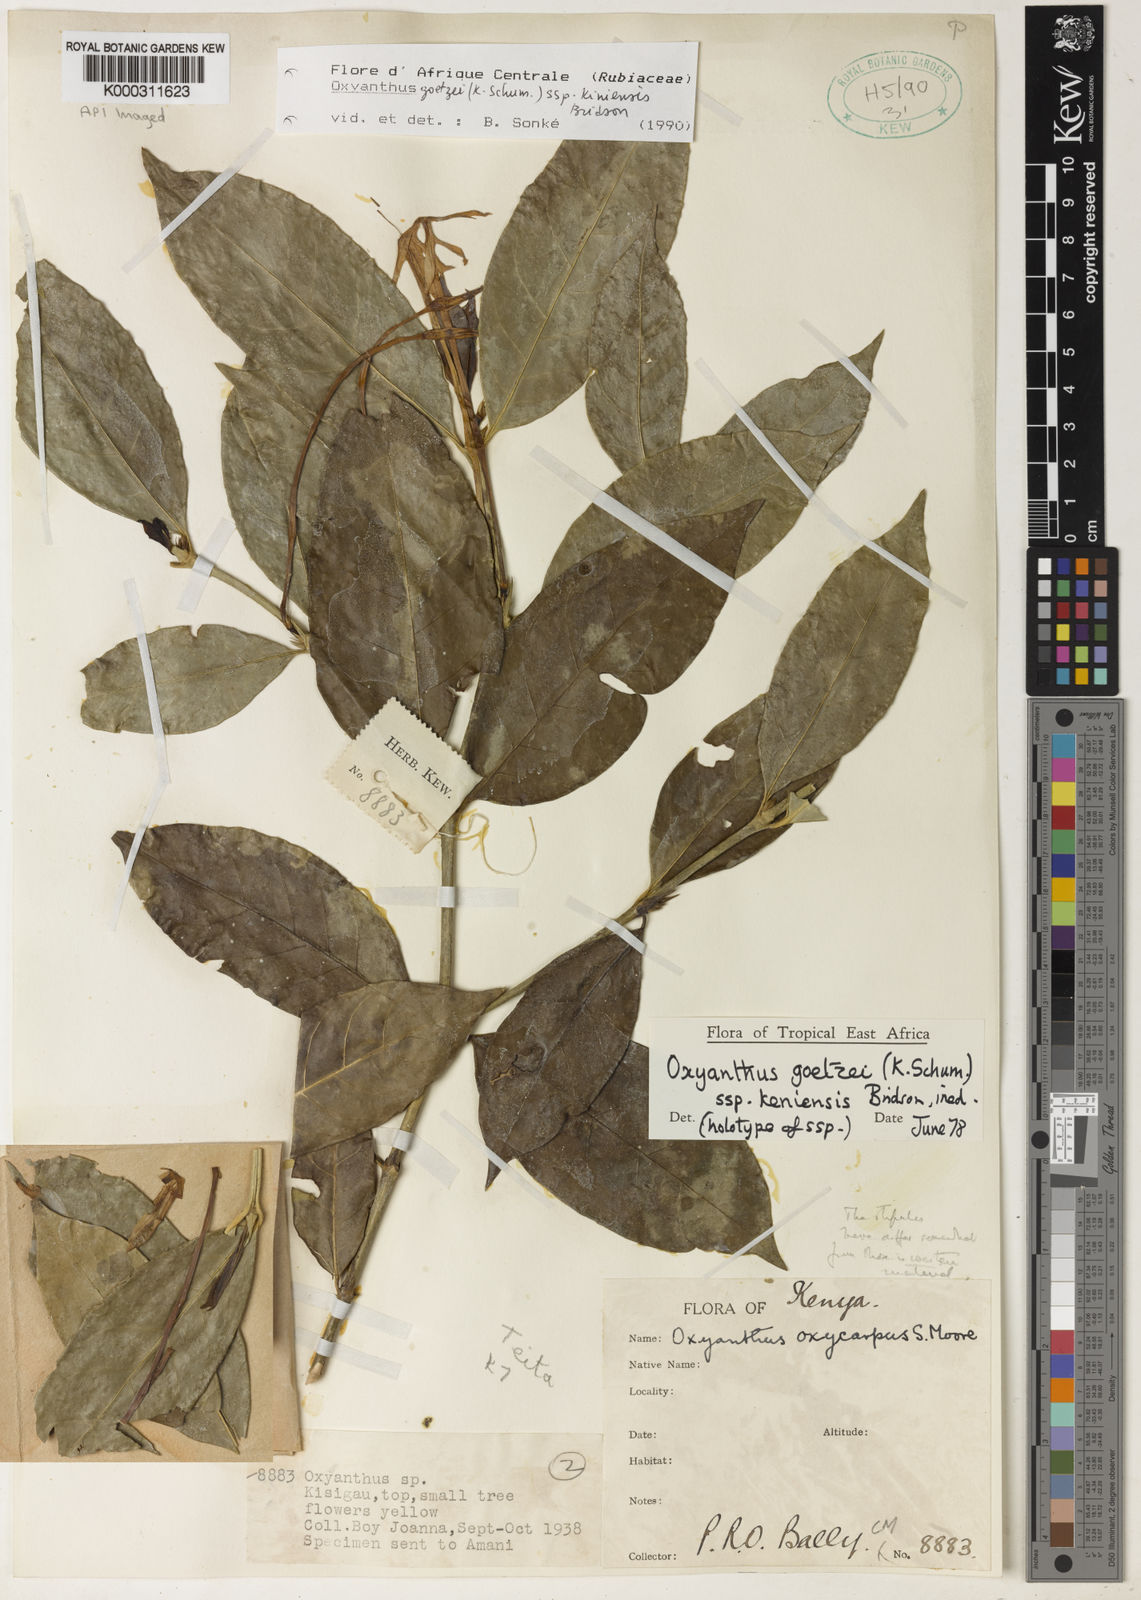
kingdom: Plantae
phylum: Tracheophyta
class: Magnoliopsida
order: Gentianales
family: Rubiaceae
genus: Oxyanthus
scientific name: Oxyanthus goetzei
